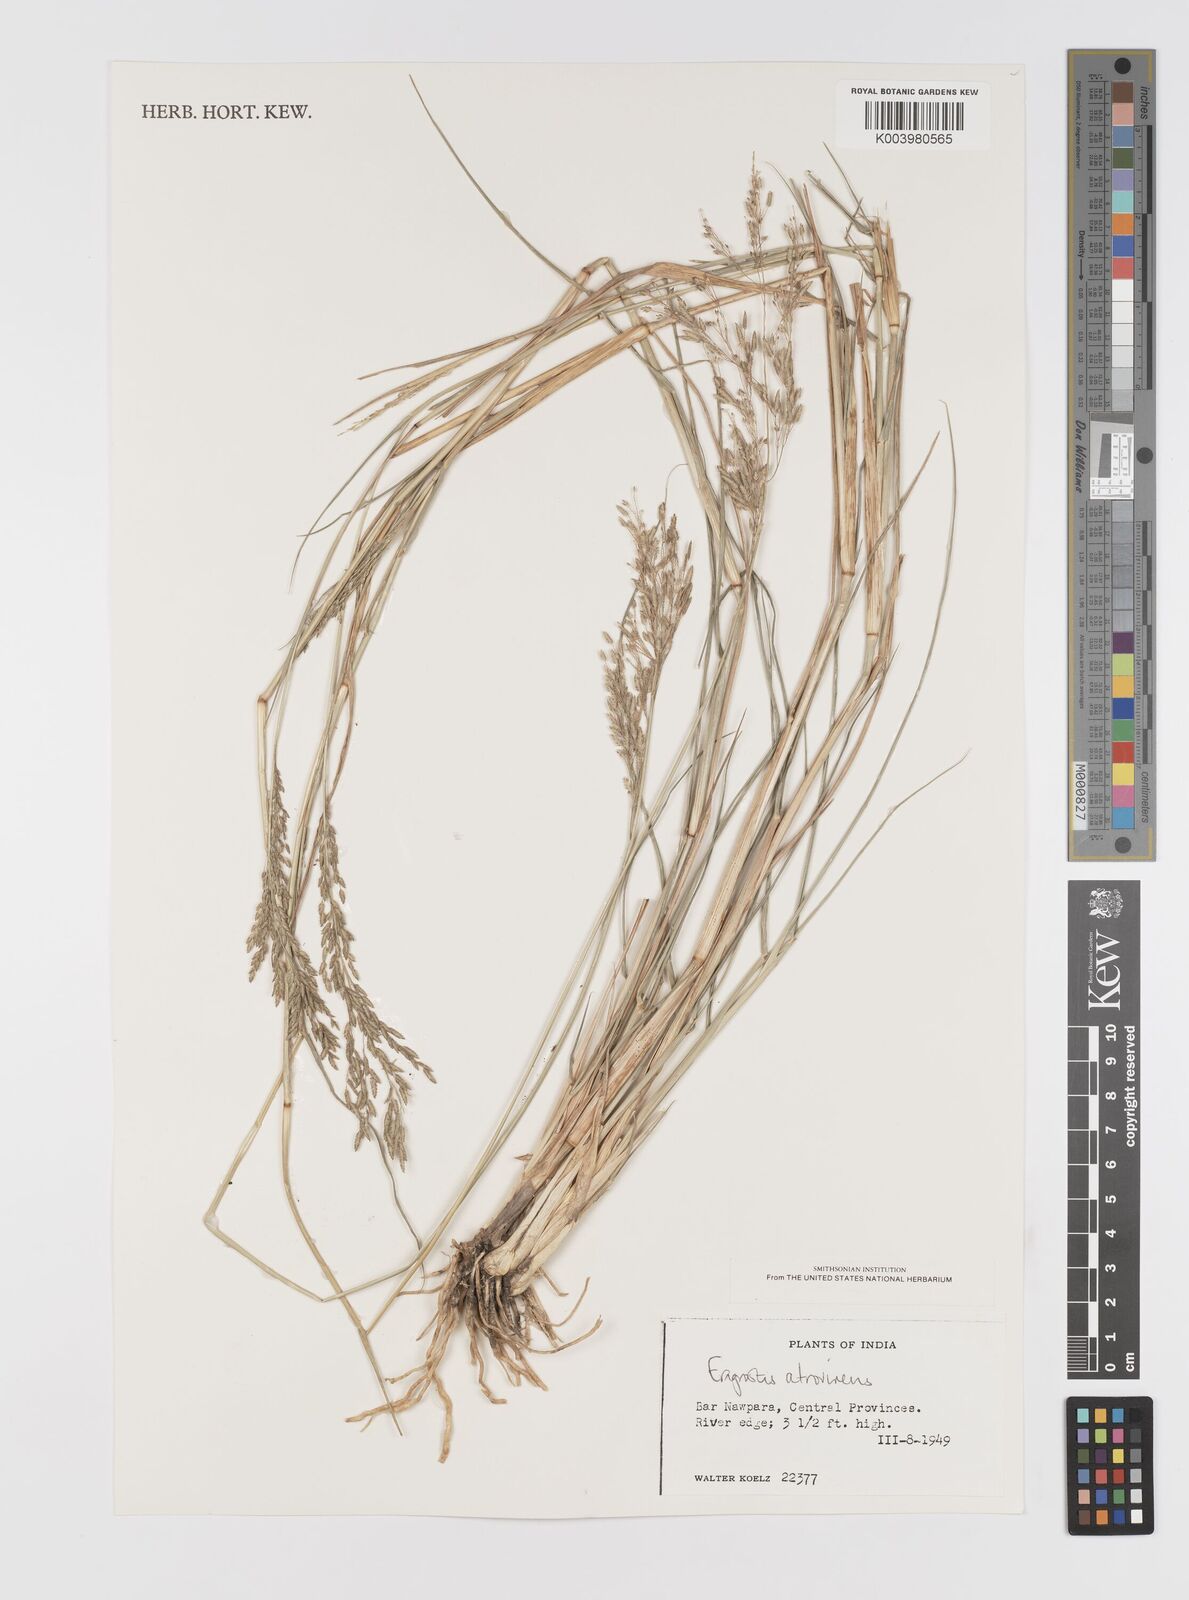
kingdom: Plantae
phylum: Tracheophyta
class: Liliopsida
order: Poales
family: Poaceae
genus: Eragrostis
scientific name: Eragrostis atrovirens
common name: Thalia lovegrass
